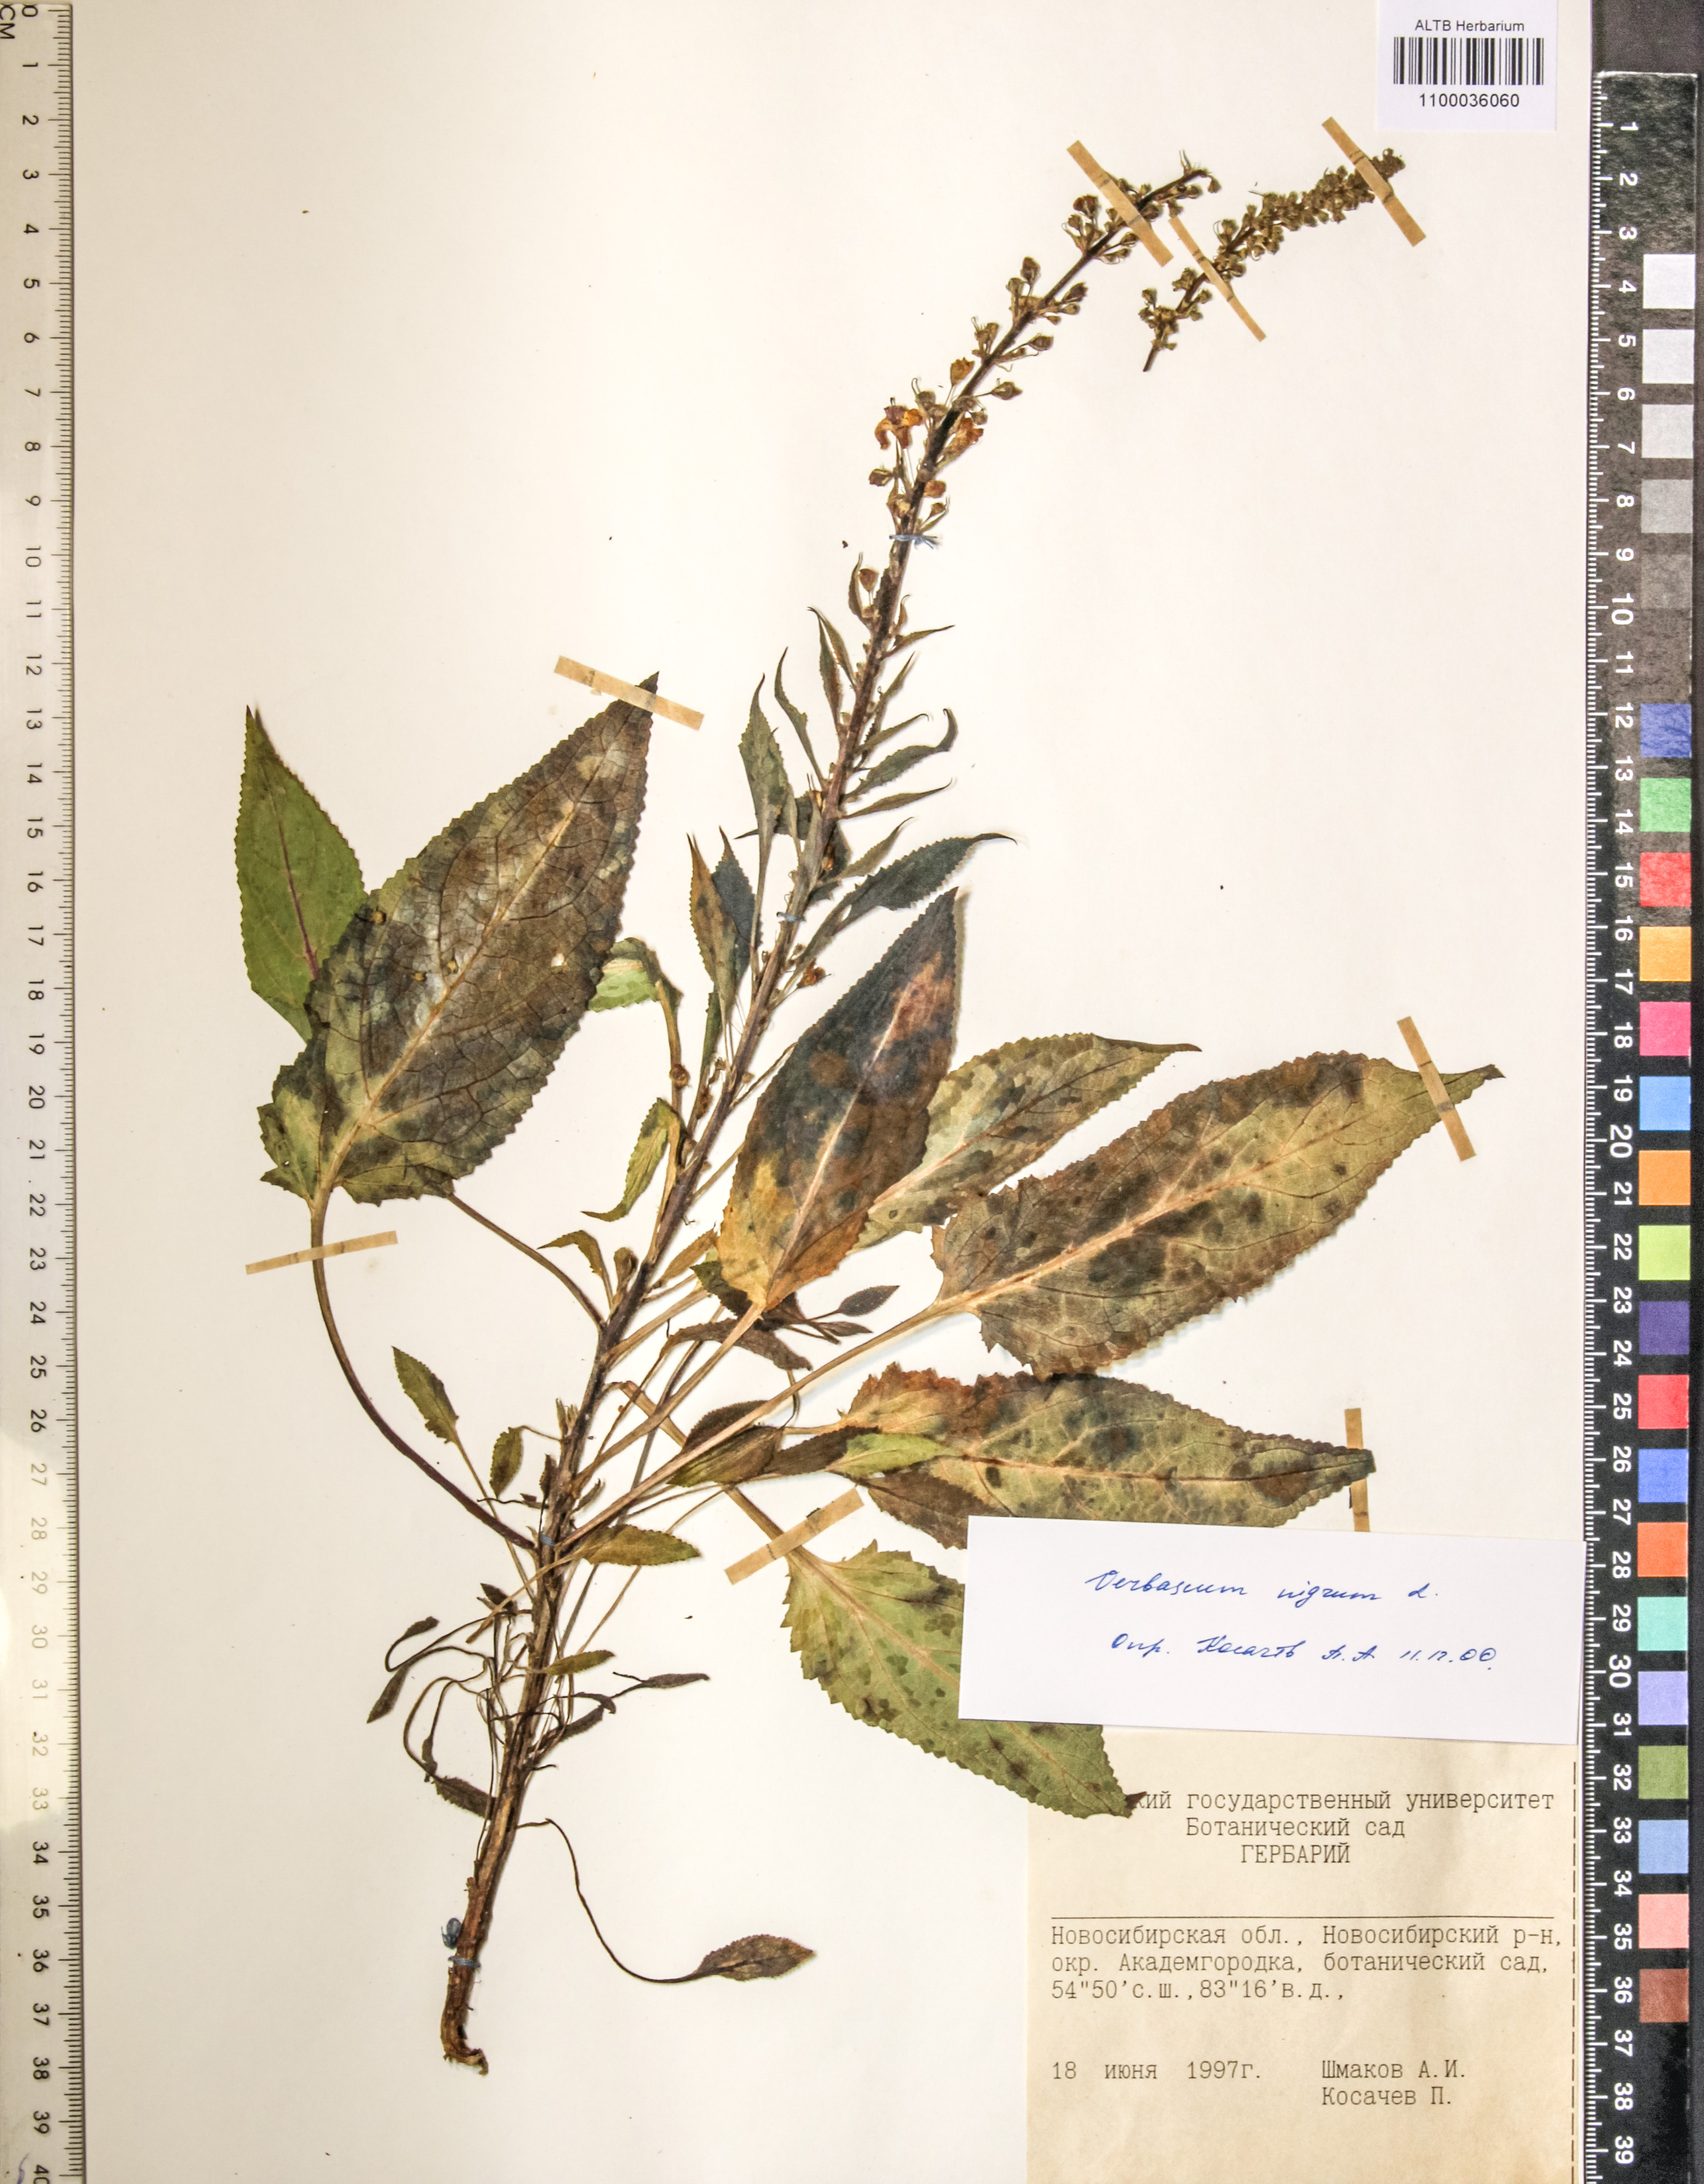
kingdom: Plantae
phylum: Tracheophyta
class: Magnoliopsida
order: Lamiales
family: Scrophulariaceae
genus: Verbascum
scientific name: Verbascum nigrum
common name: Dark mullein
